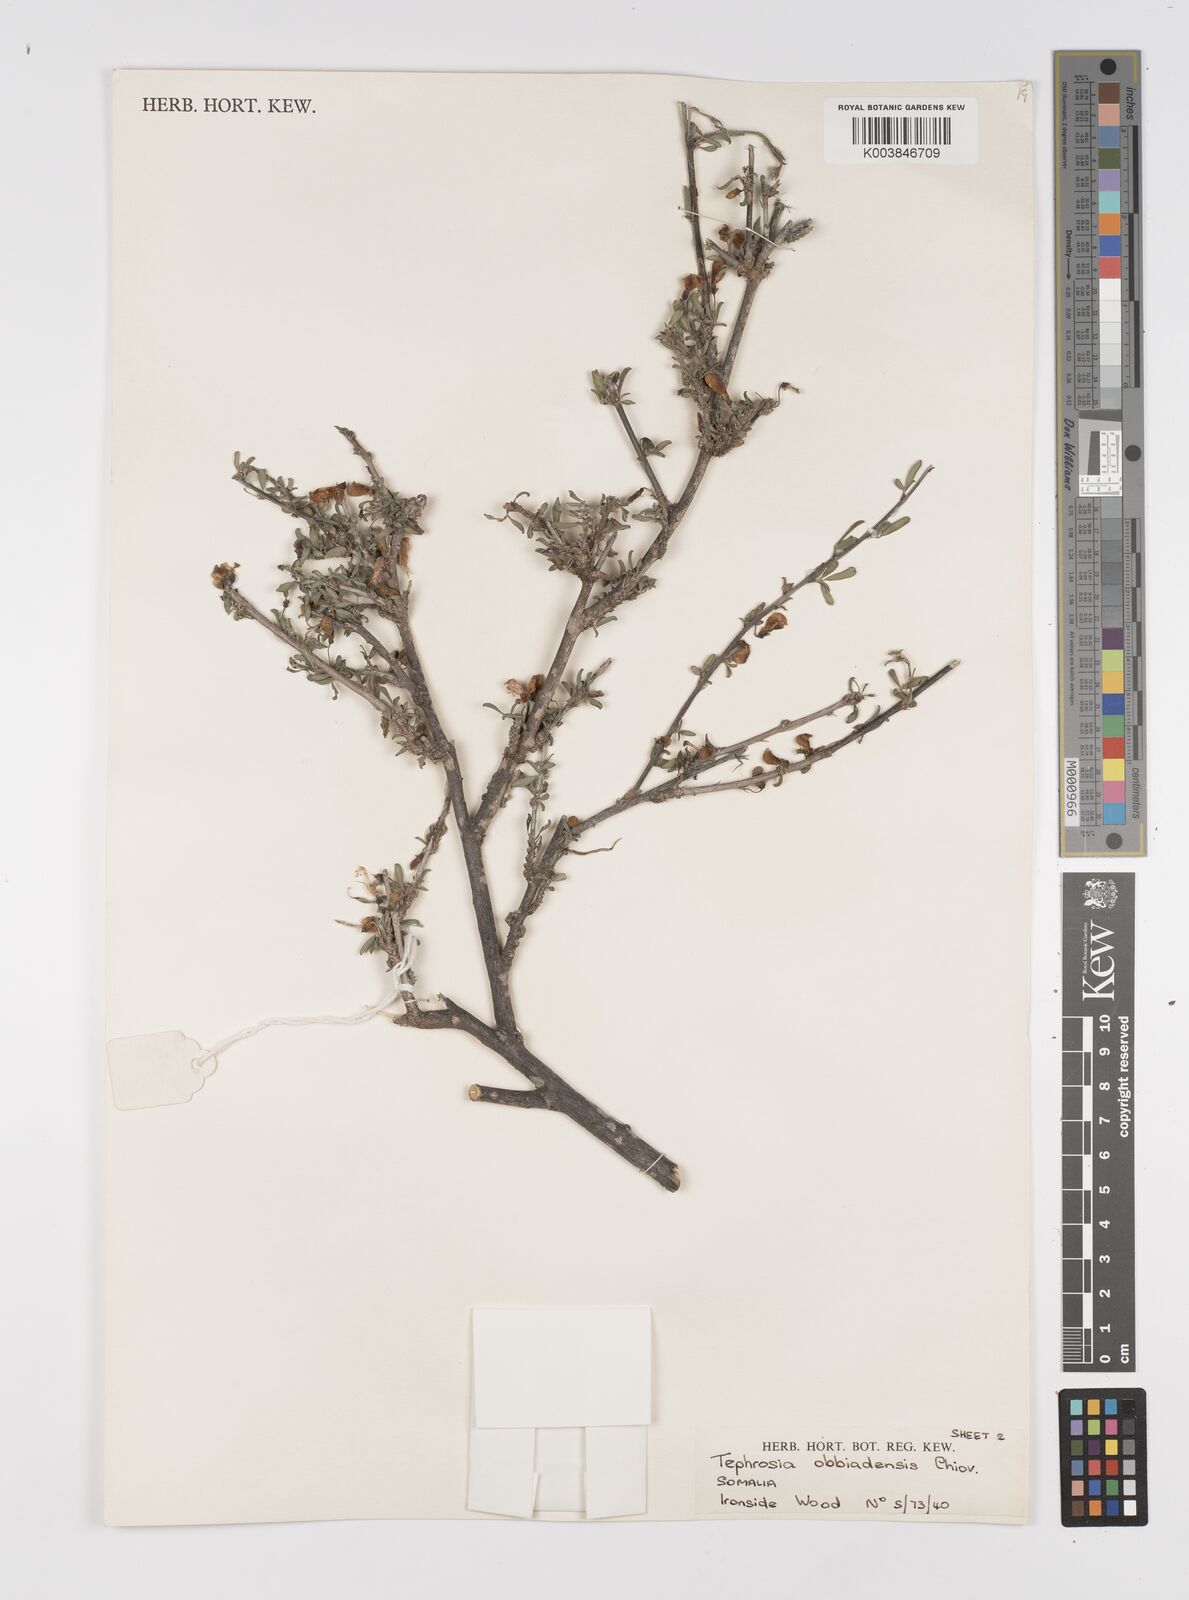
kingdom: Plantae
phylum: Tracheophyta
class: Magnoliopsida
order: Fabales
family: Fabaceae
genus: Tephrosia
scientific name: Tephrosia obbiadensis
